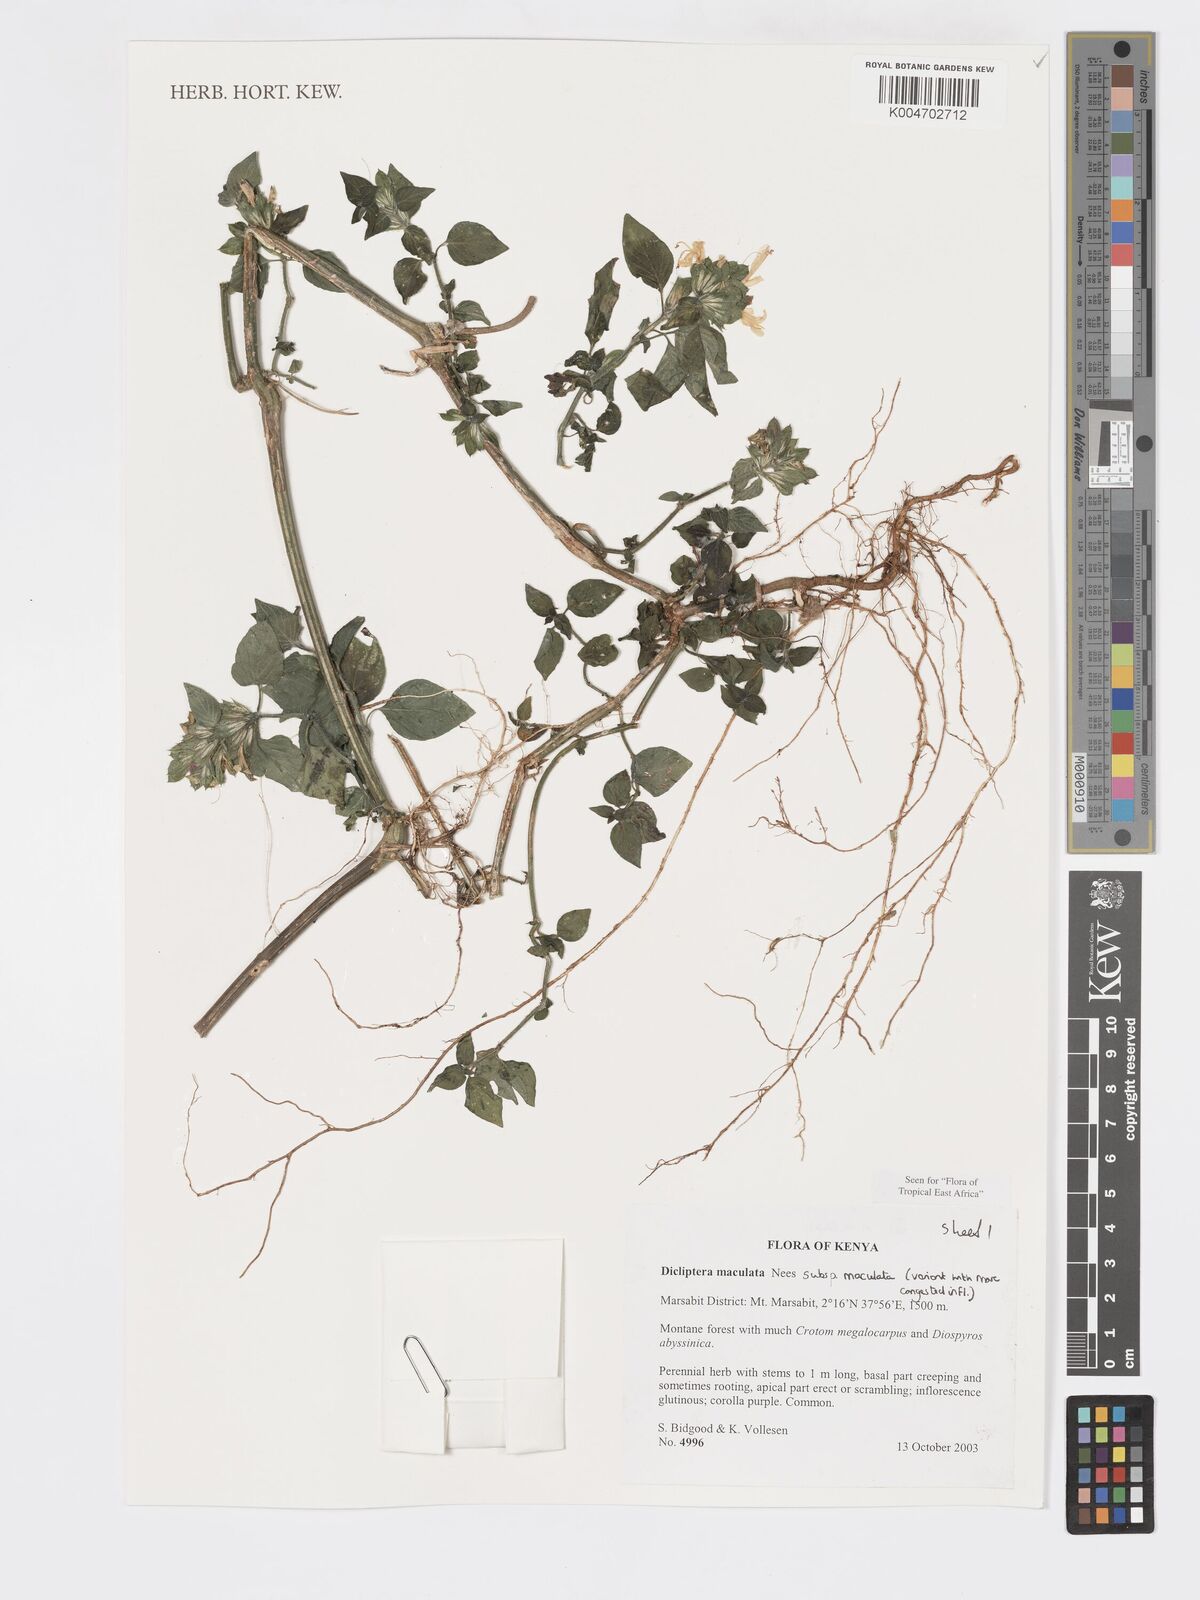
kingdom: Plantae
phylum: Tracheophyta
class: Magnoliopsida
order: Lamiales
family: Acanthaceae
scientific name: Acanthaceae
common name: Acanthaceae
